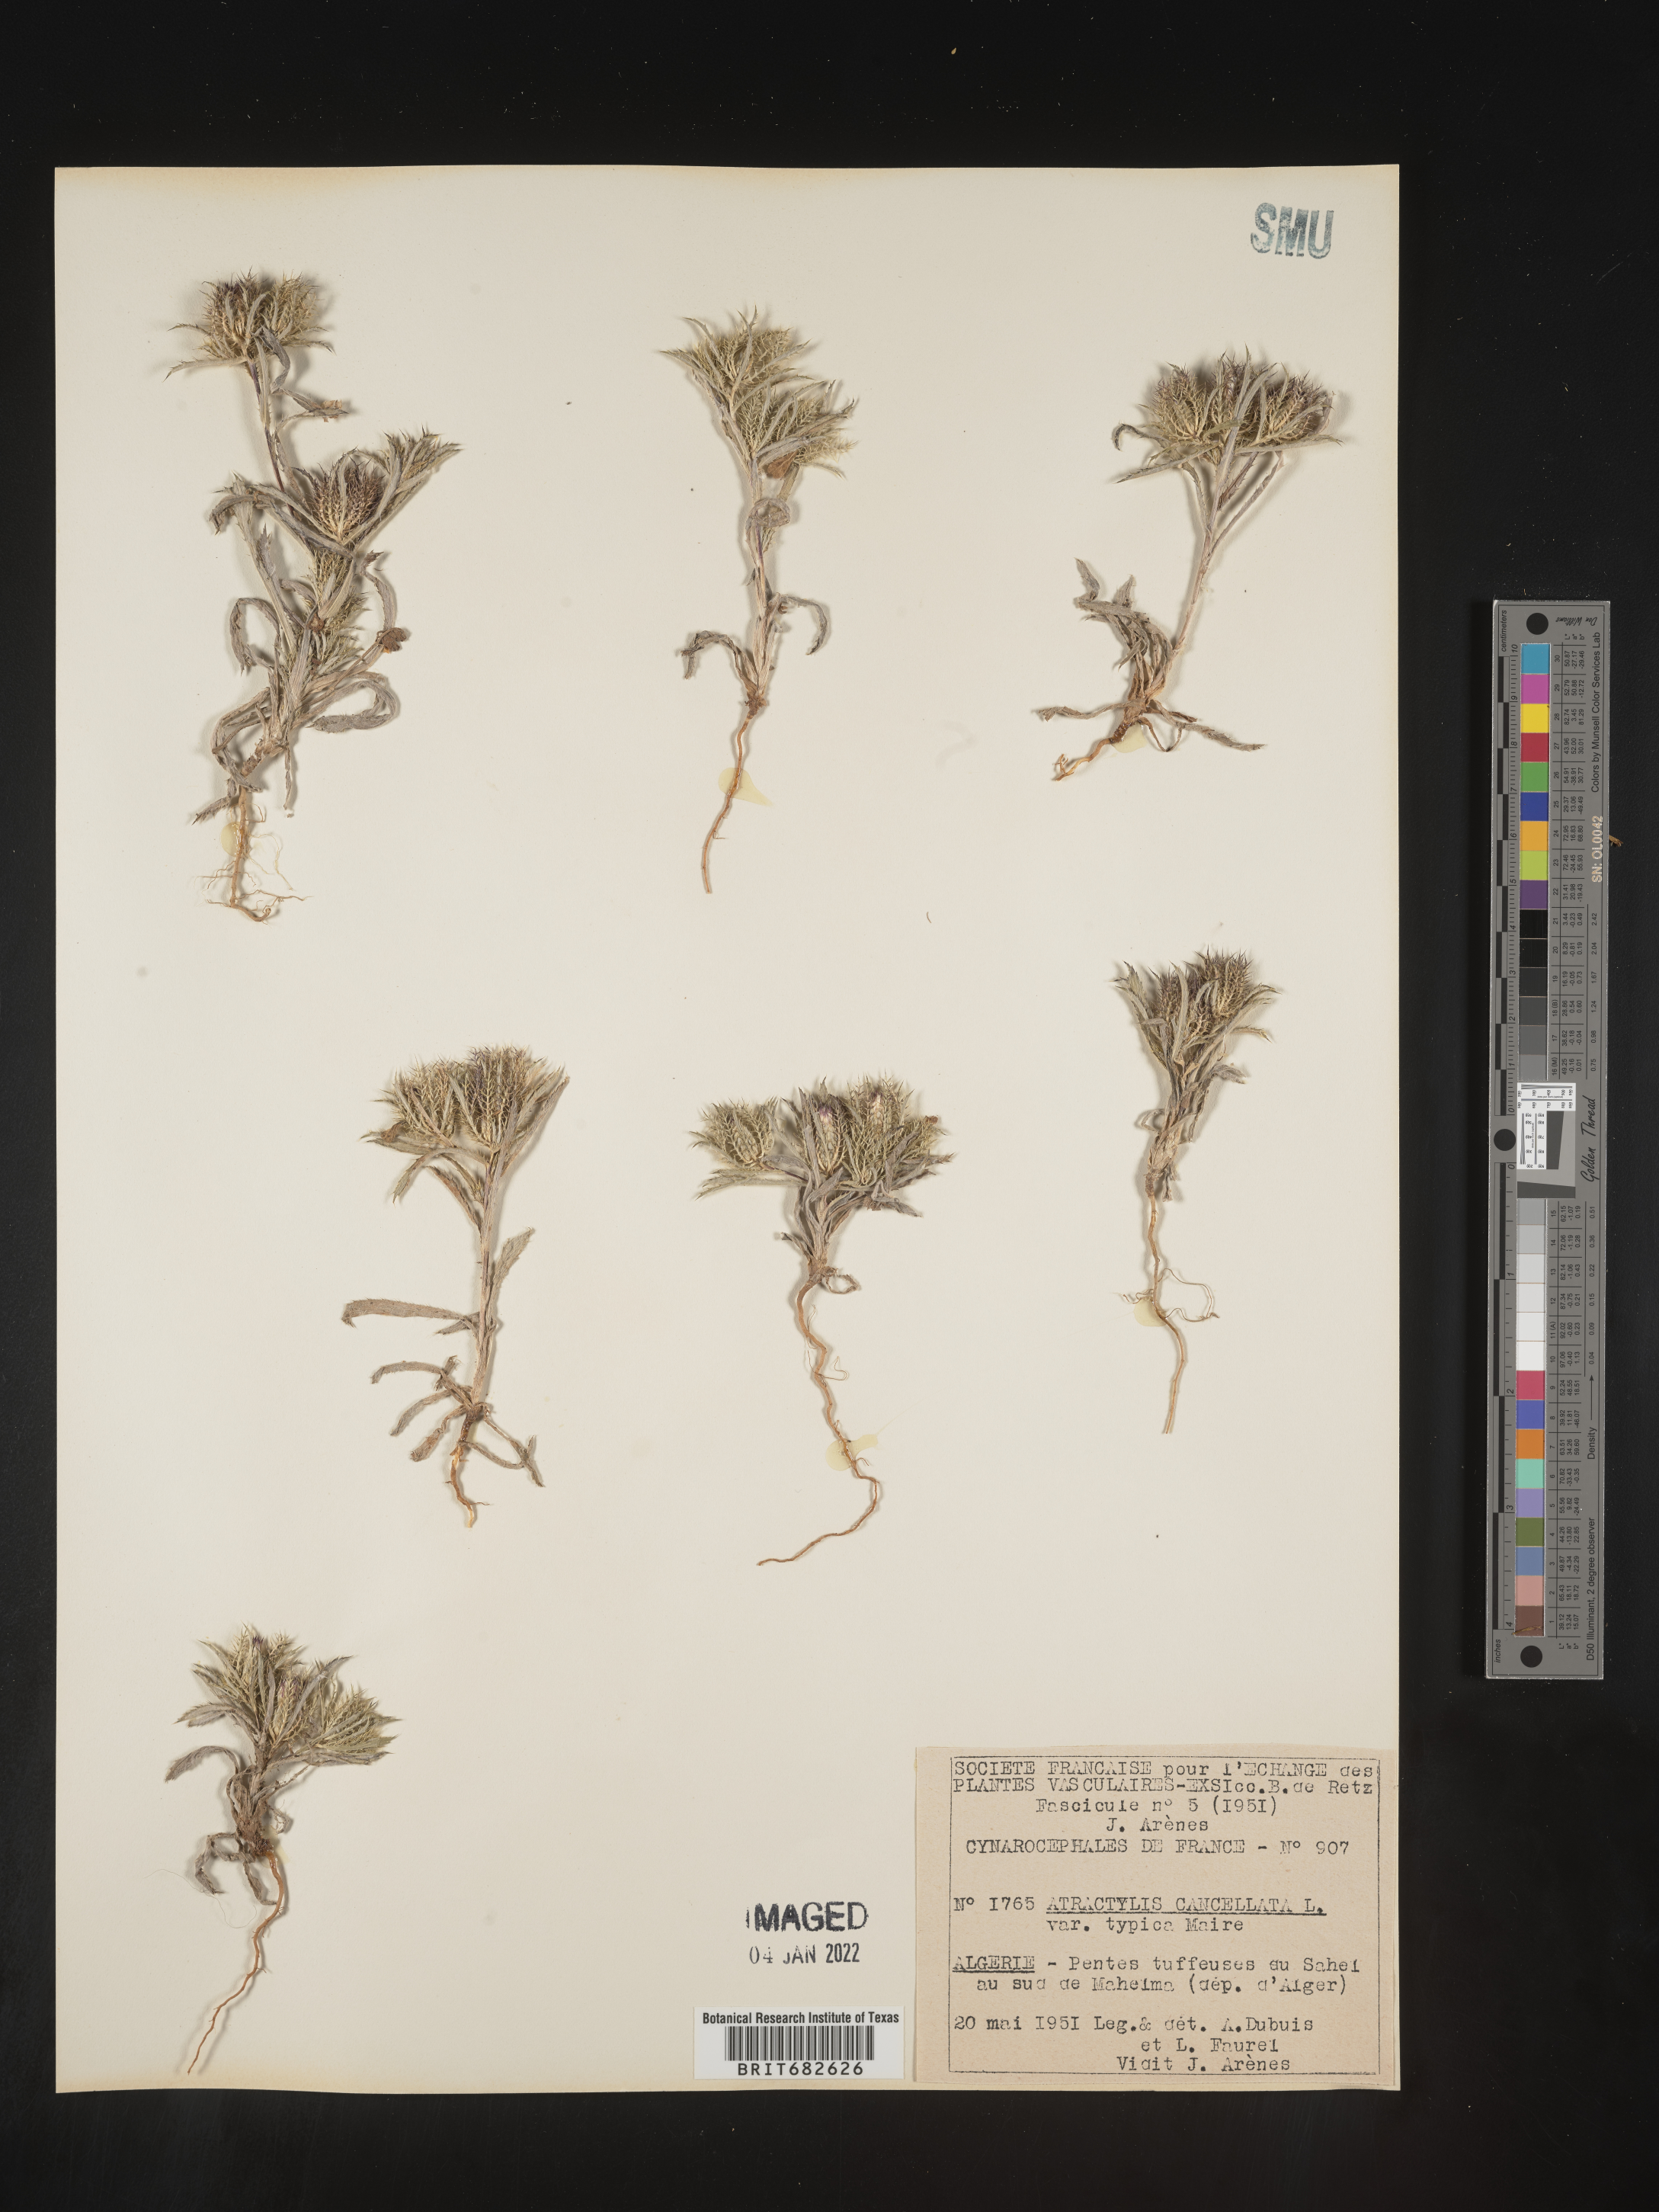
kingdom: Plantae
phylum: Tracheophyta
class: Magnoliopsida
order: Asterales
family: Asteraceae
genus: Atractylis
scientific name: Atractylis
